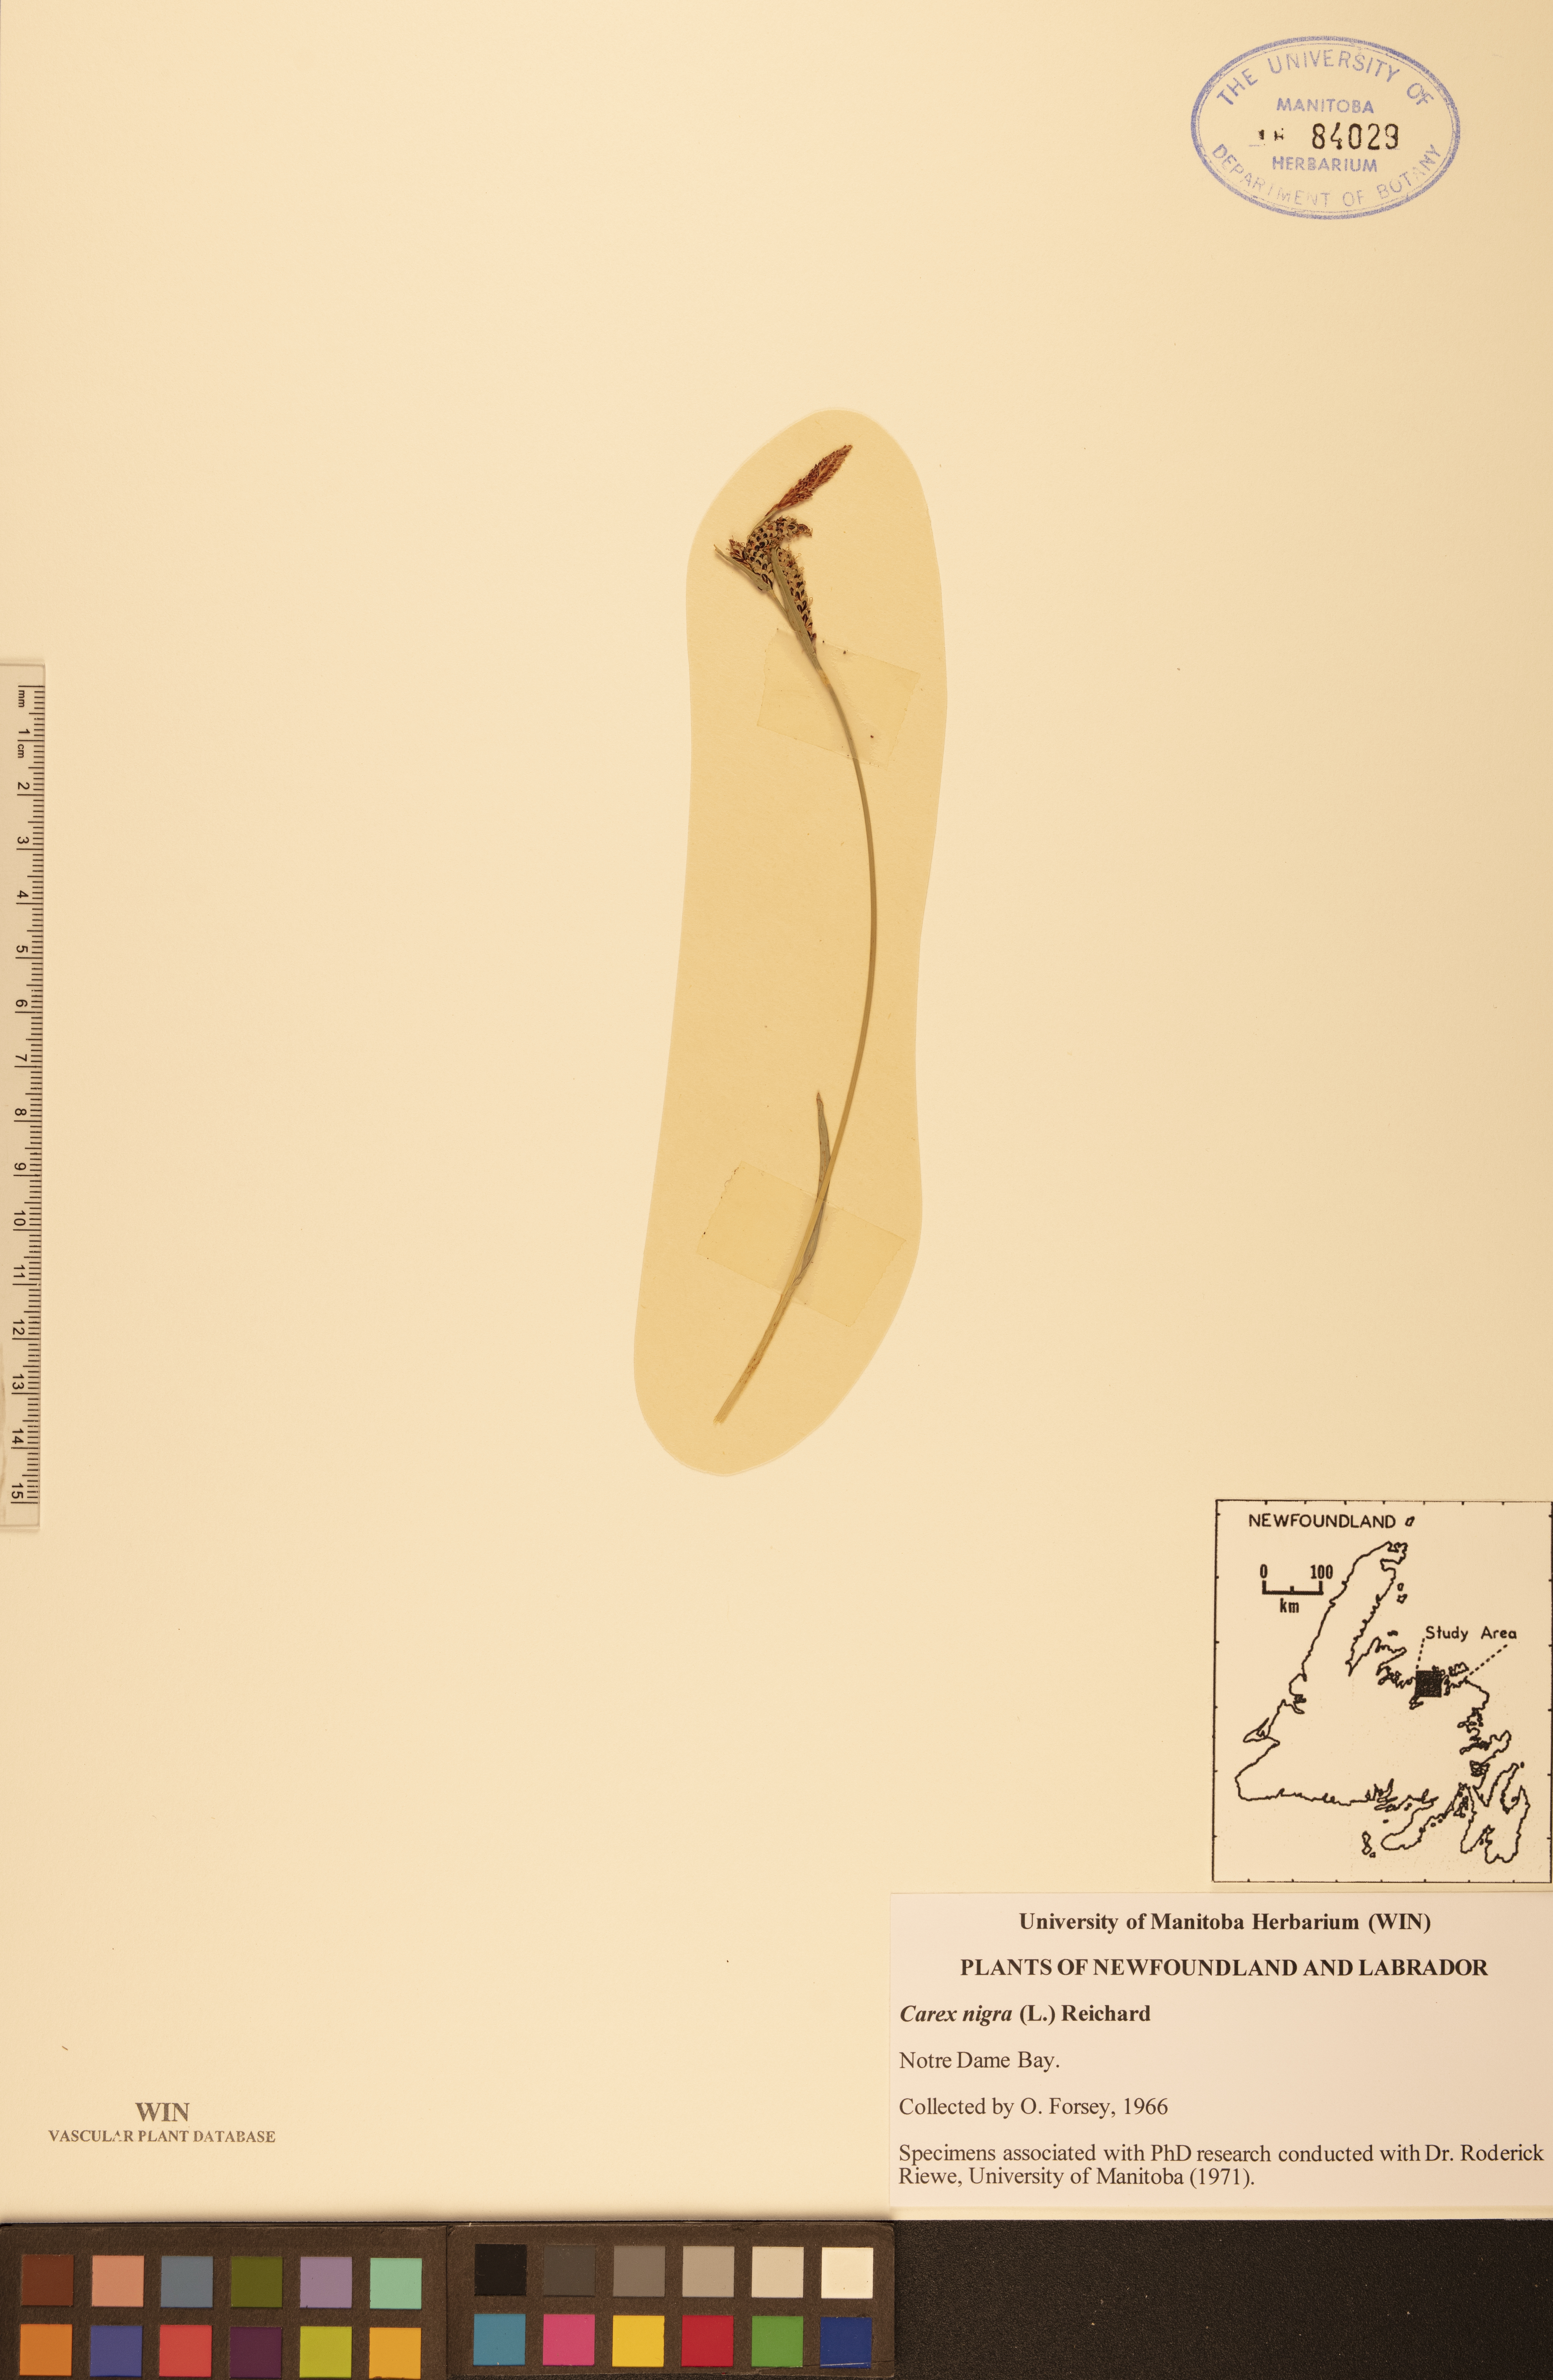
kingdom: Plantae
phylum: Tracheophyta
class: Liliopsida
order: Poales
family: Cyperaceae
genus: Carex
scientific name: Carex nigra
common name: Common sedge
